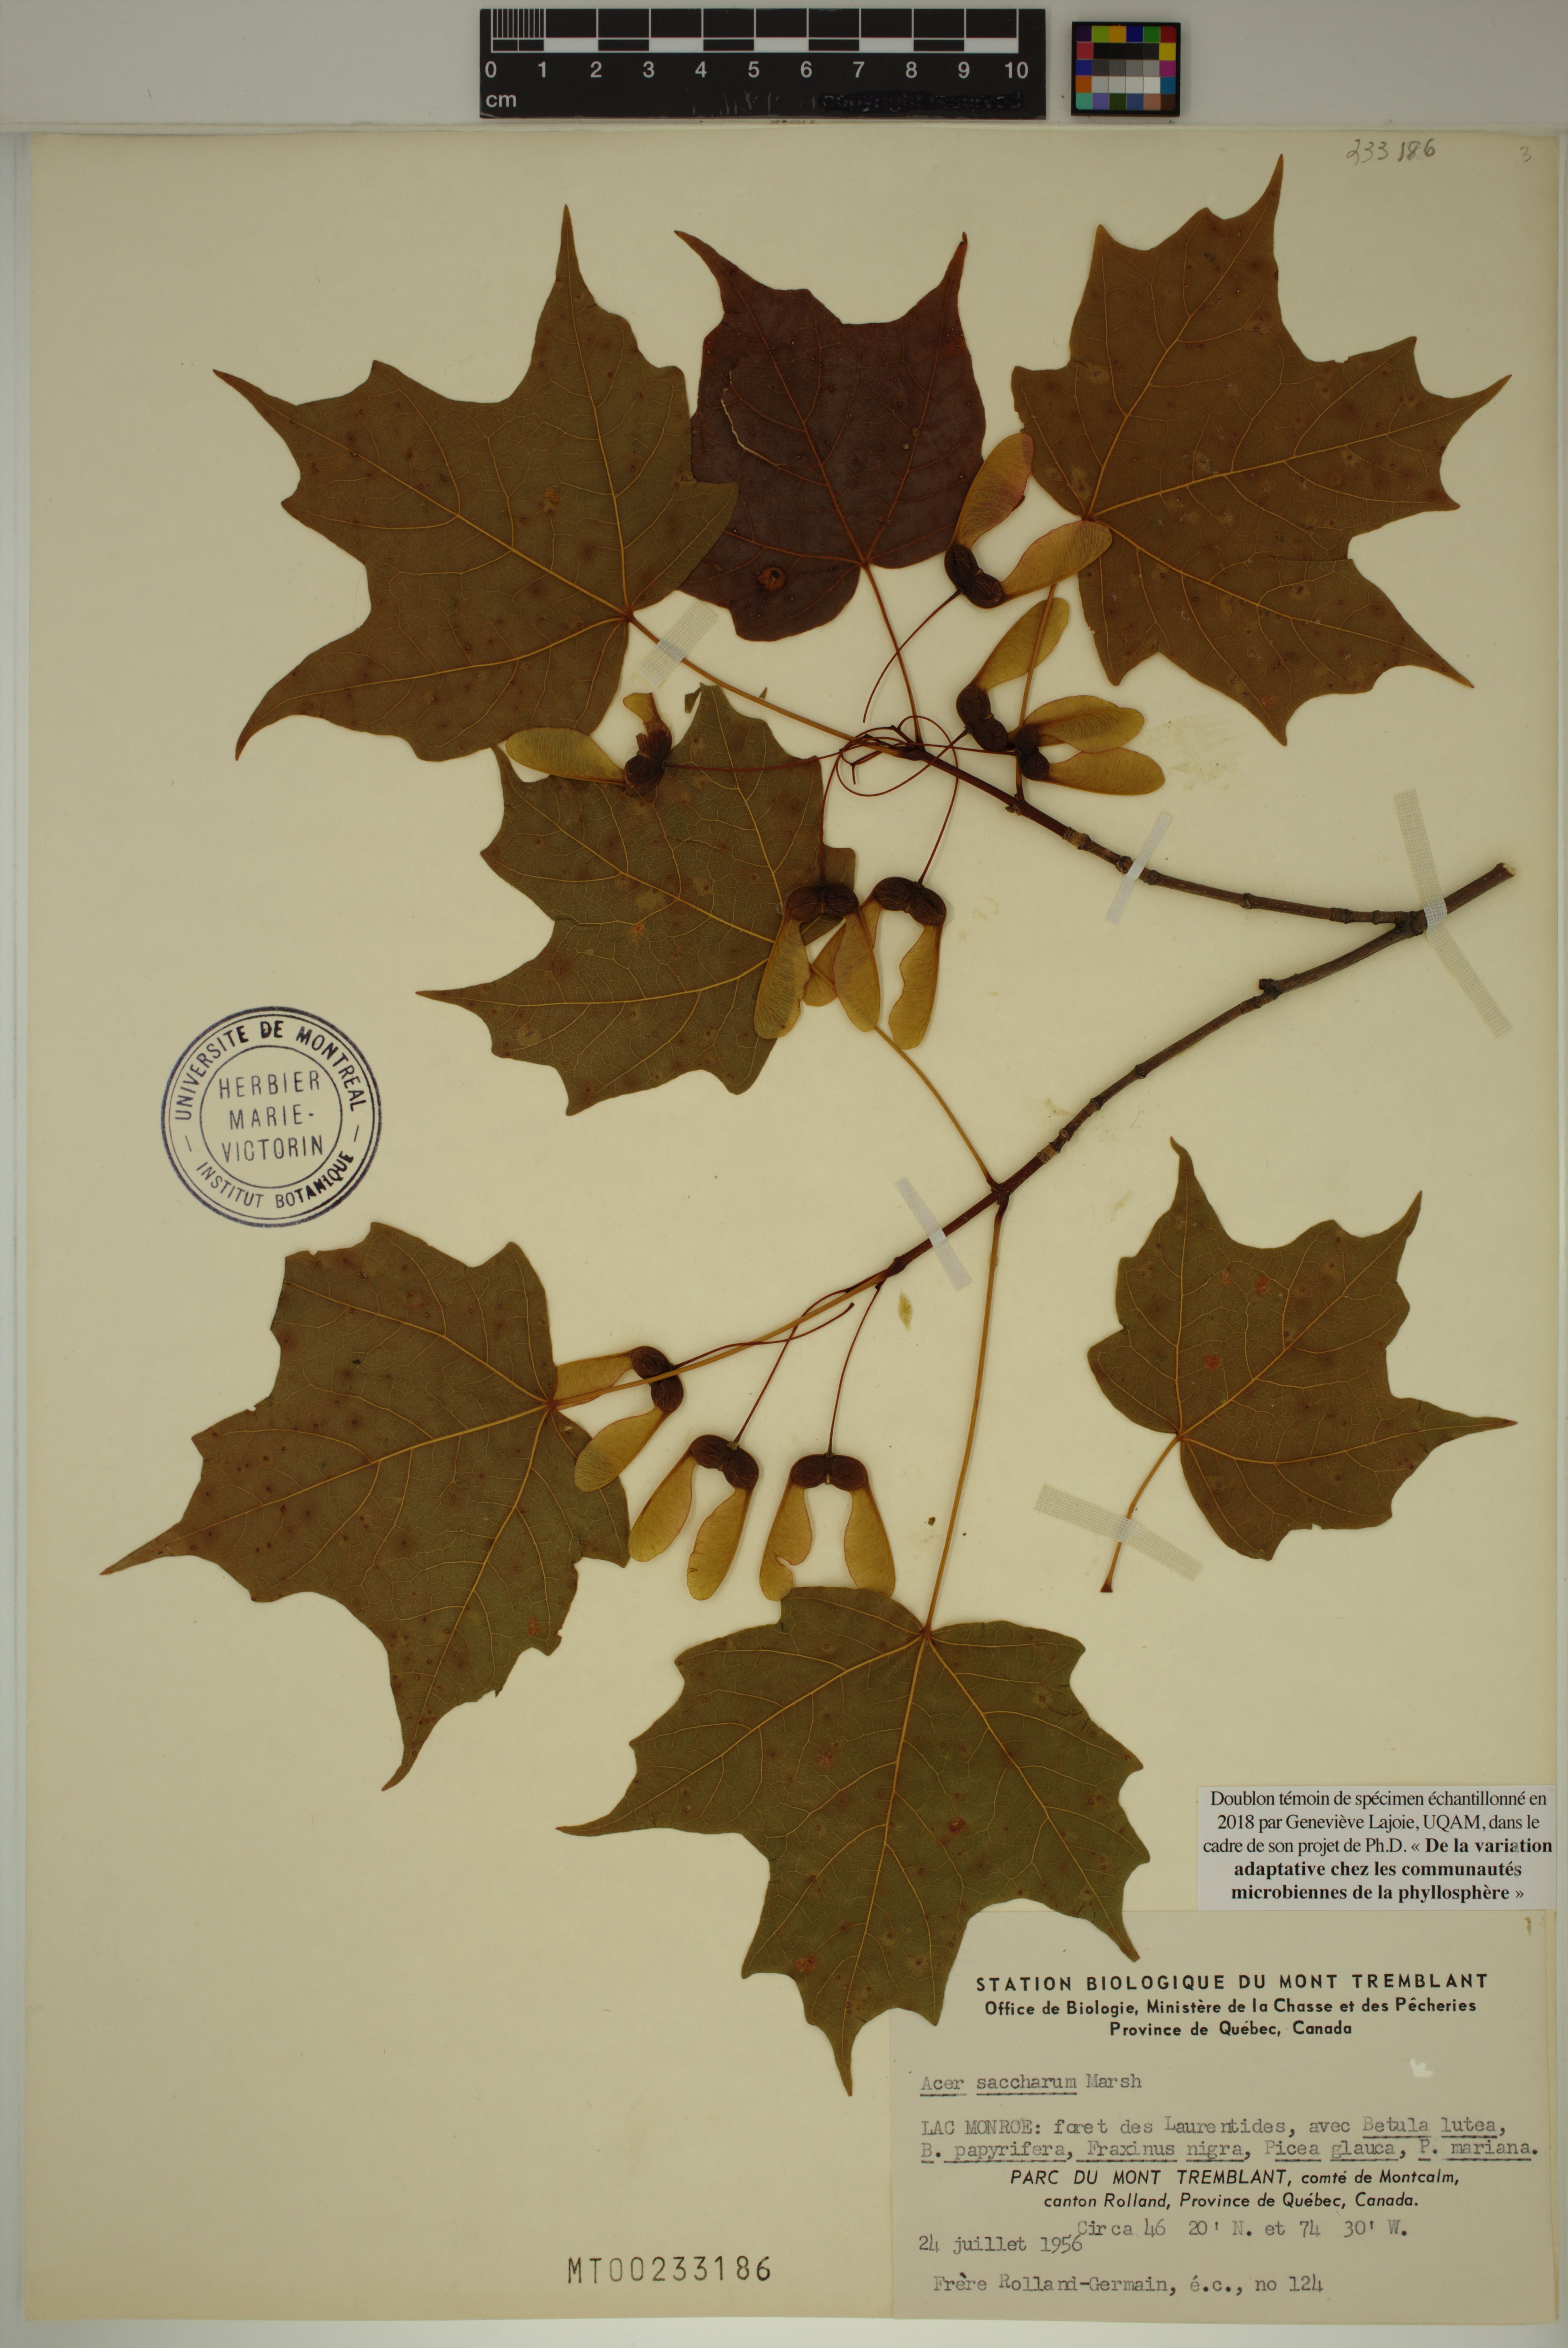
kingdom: Plantae
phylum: Tracheophyta
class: Magnoliopsida
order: Sapindales
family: Sapindaceae
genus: Acer
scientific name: Acer saccharum
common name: Sugar maple
